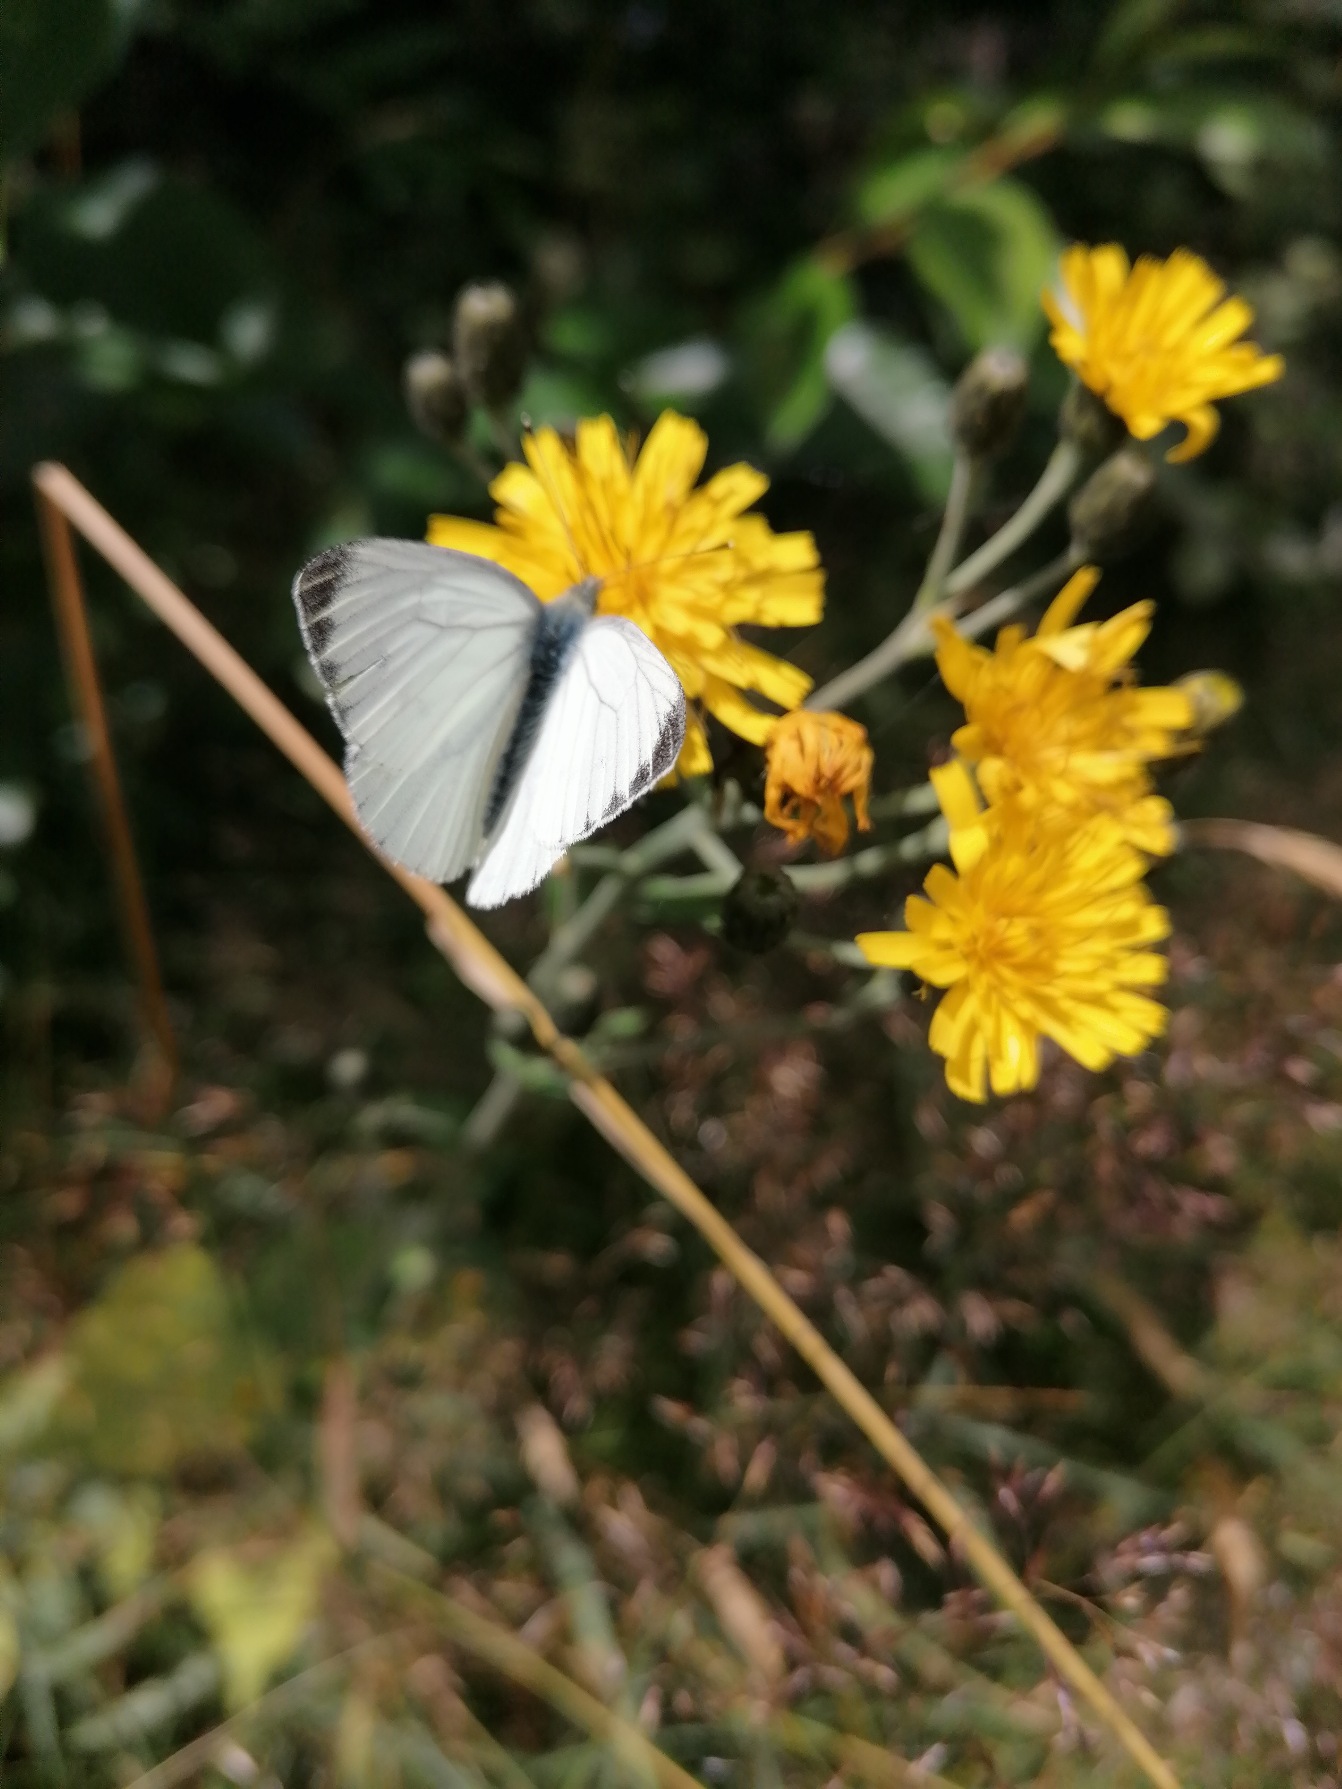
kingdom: Animalia
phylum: Arthropoda
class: Insecta
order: Lepidoptera
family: Pieridae
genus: Pieris
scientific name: Pieris napi
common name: Grønåret kålsommerfugl
